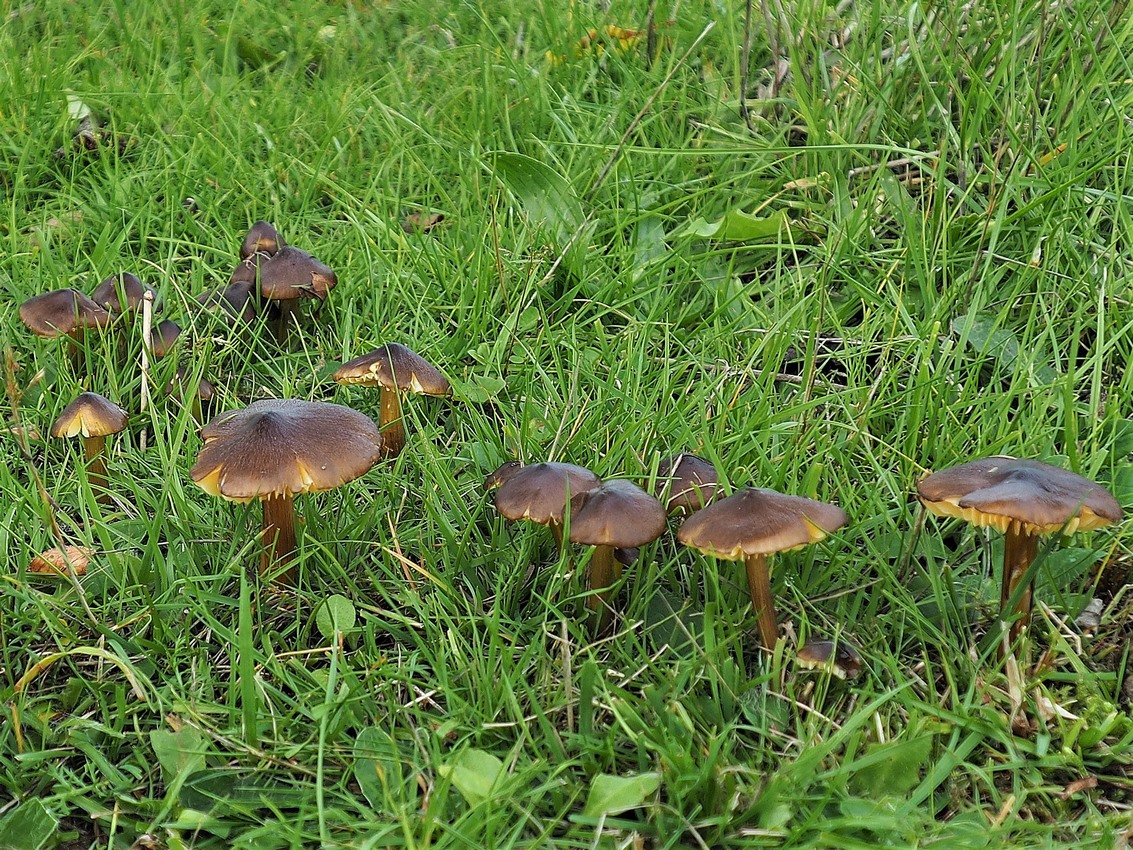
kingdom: Fungi
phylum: Basidiomycota
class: Agaricomycetes
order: Agaricales
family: Hygrophoraceae
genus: Hygrocybe
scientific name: Hygrocybe spadicea
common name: daddelbrun vokshat
